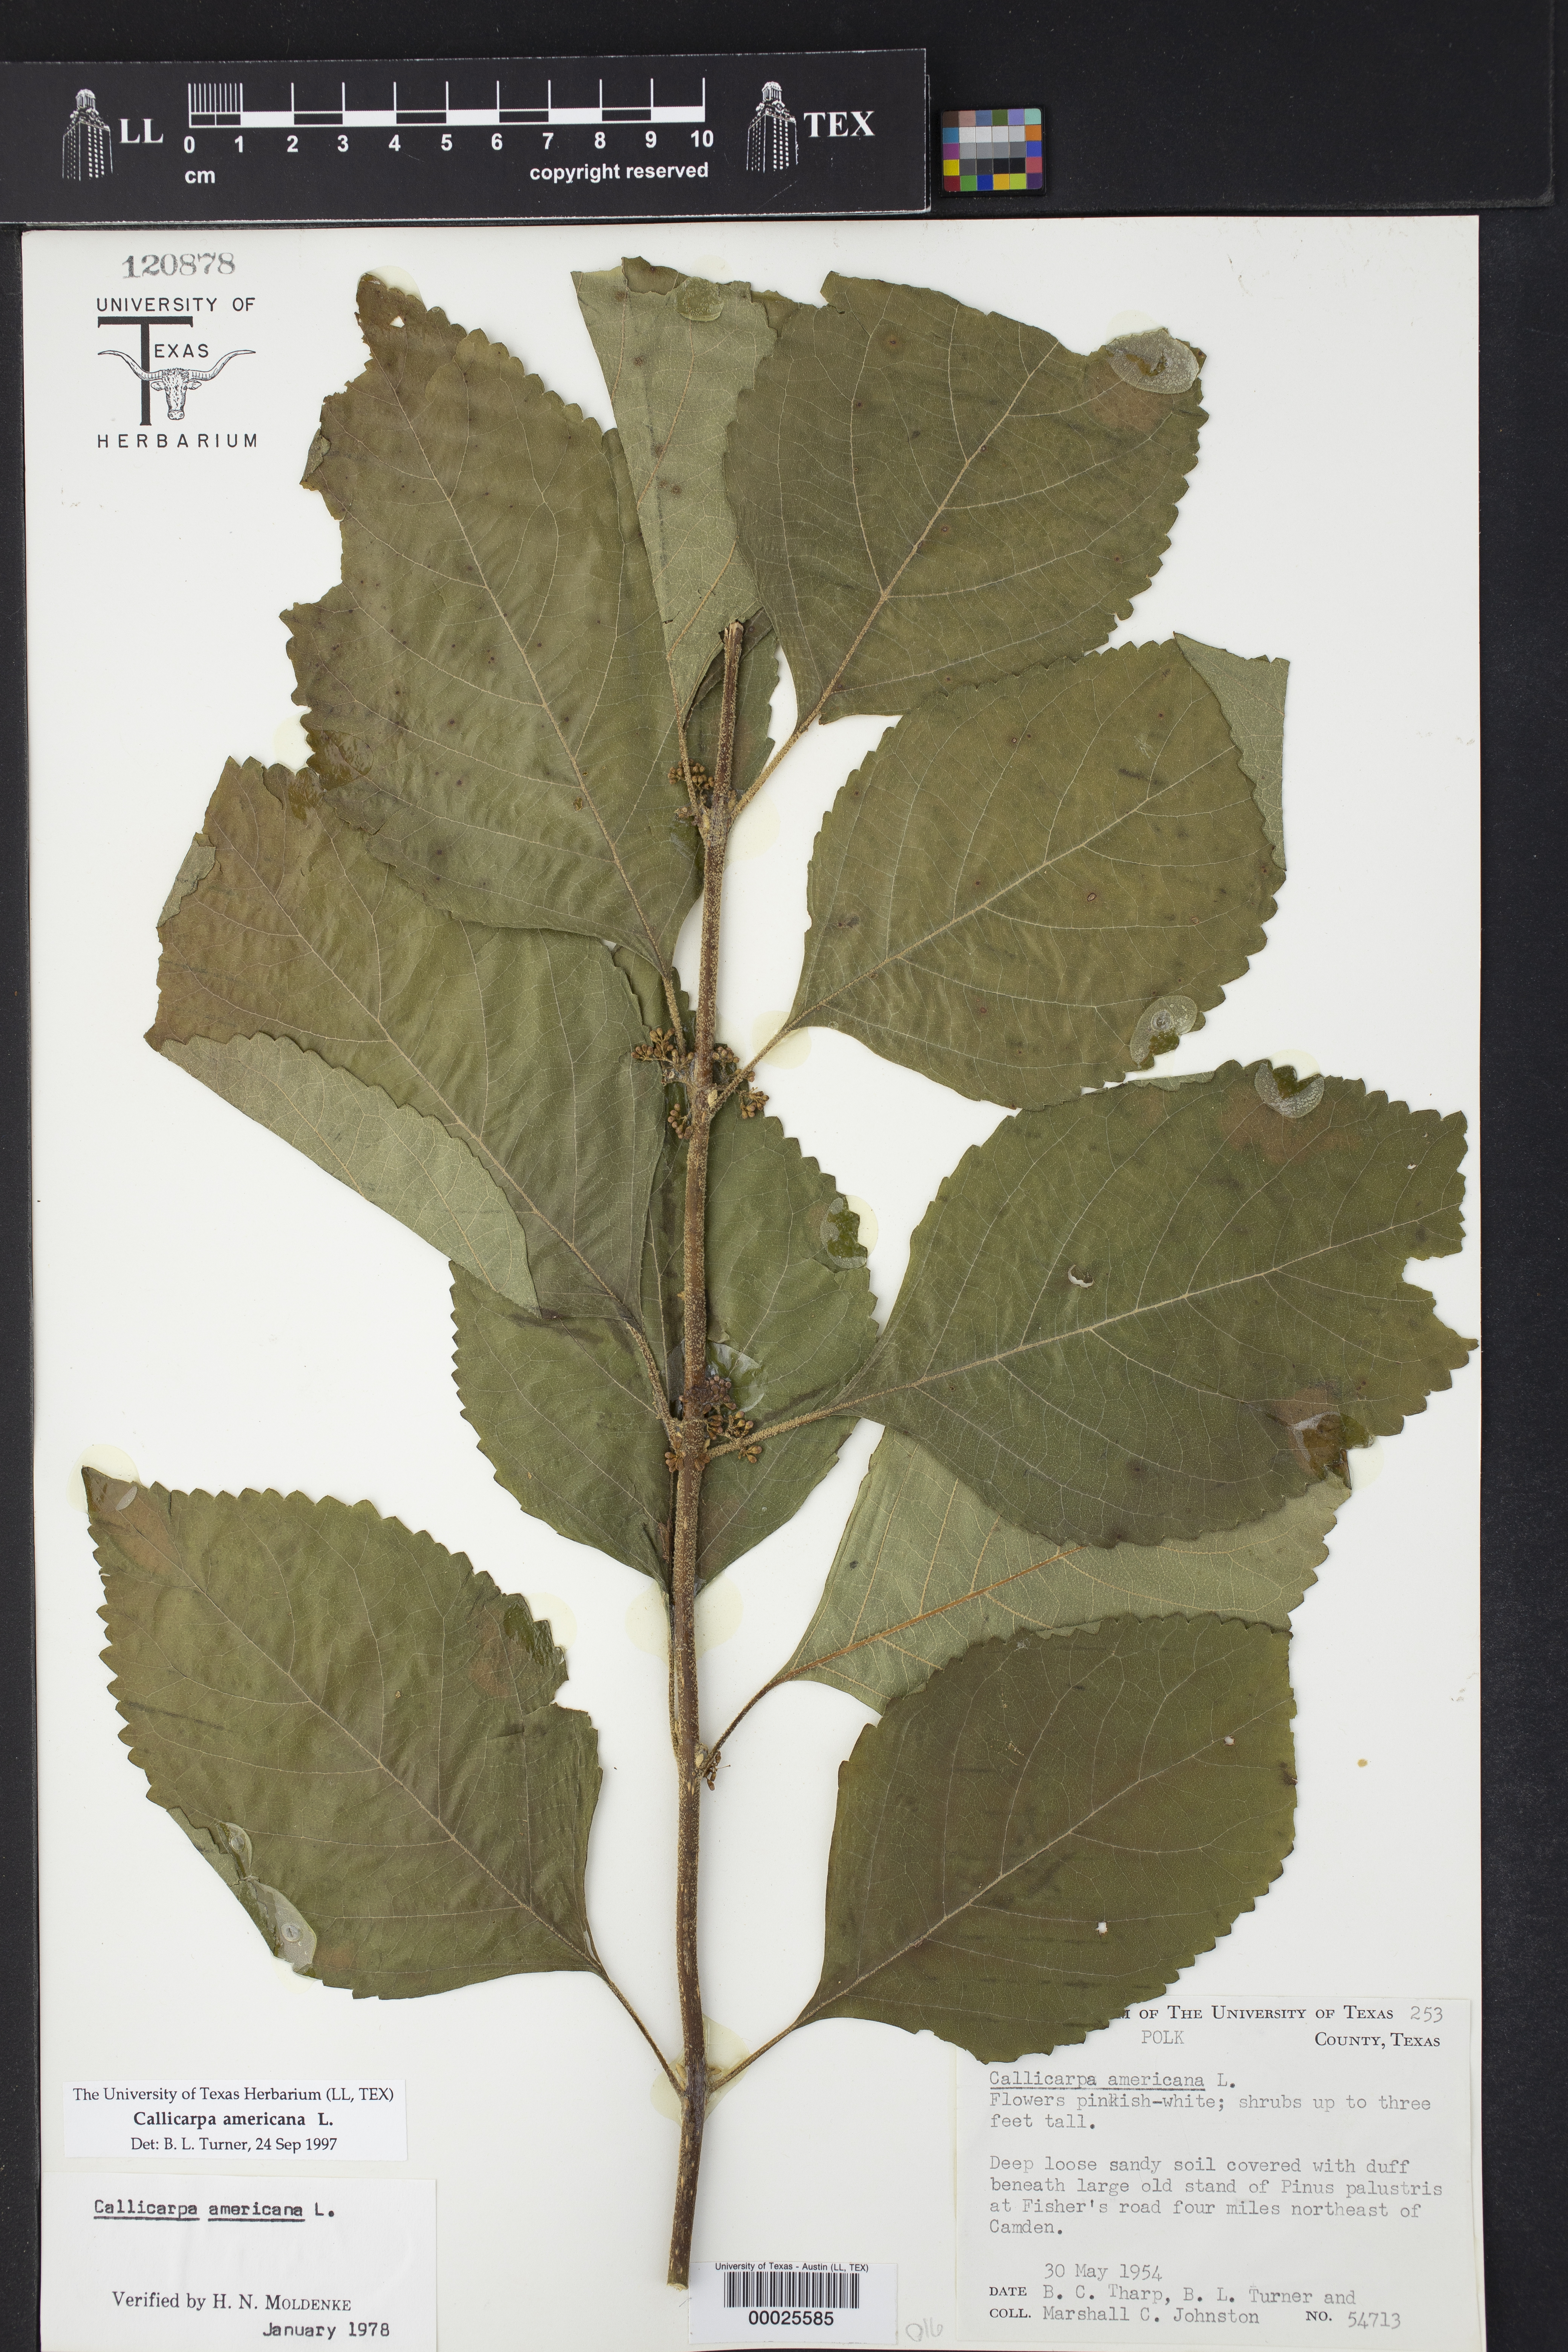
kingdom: Plantae
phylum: Tracheophyta
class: Magnoliopsida
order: Lamiales
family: Lamiaceae
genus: Callicarpa
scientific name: Callicarpa americana
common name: American beautyberry
